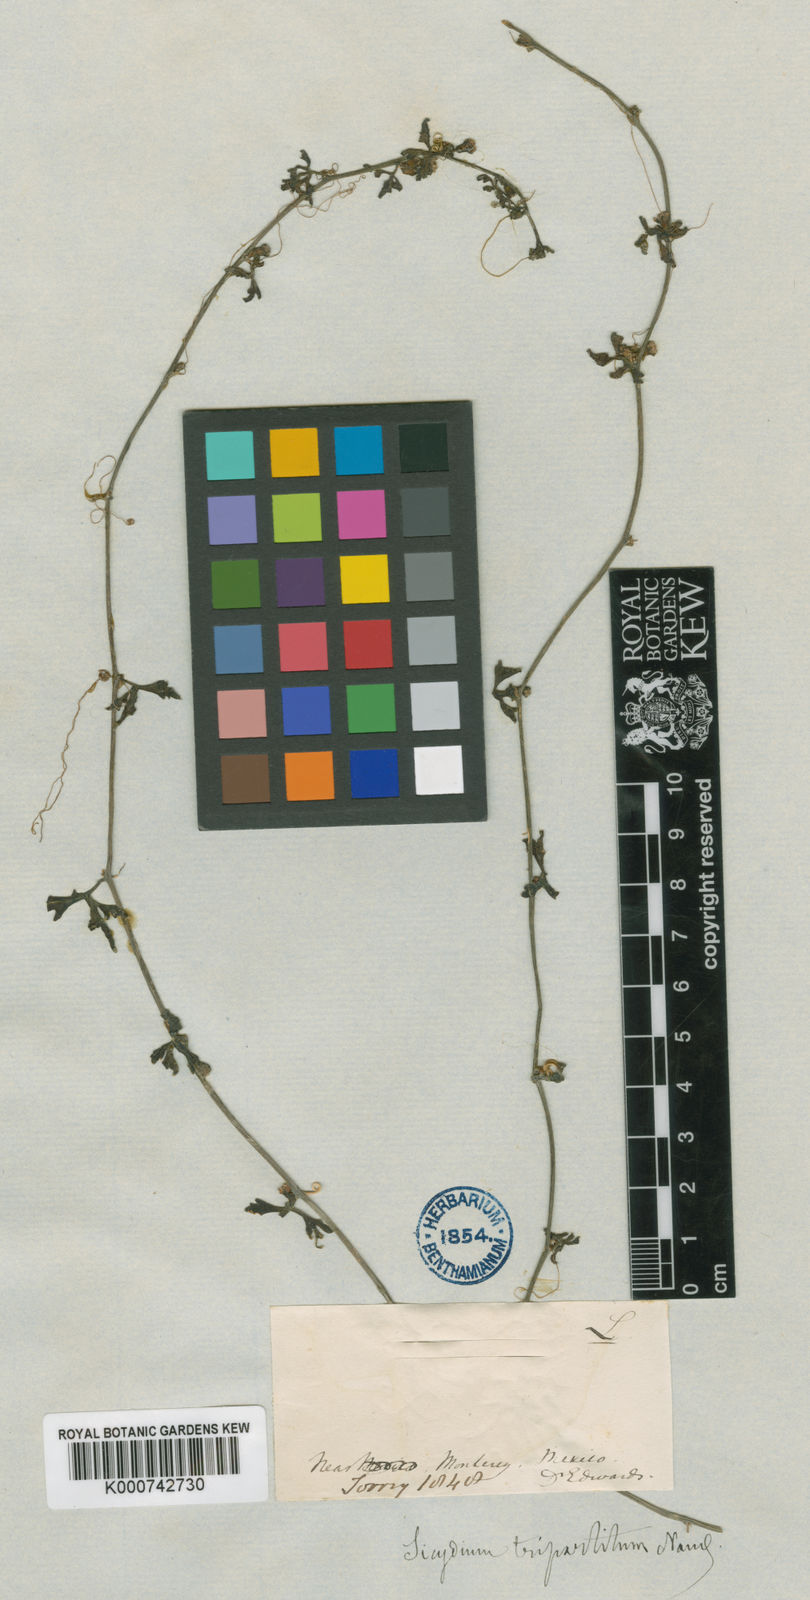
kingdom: Plantae
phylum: Tracheophyta
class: Magnoliopsida
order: Cucurbitales
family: Cucurbitaceae
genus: Ibervillea
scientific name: Ibervillea lindheimeri
